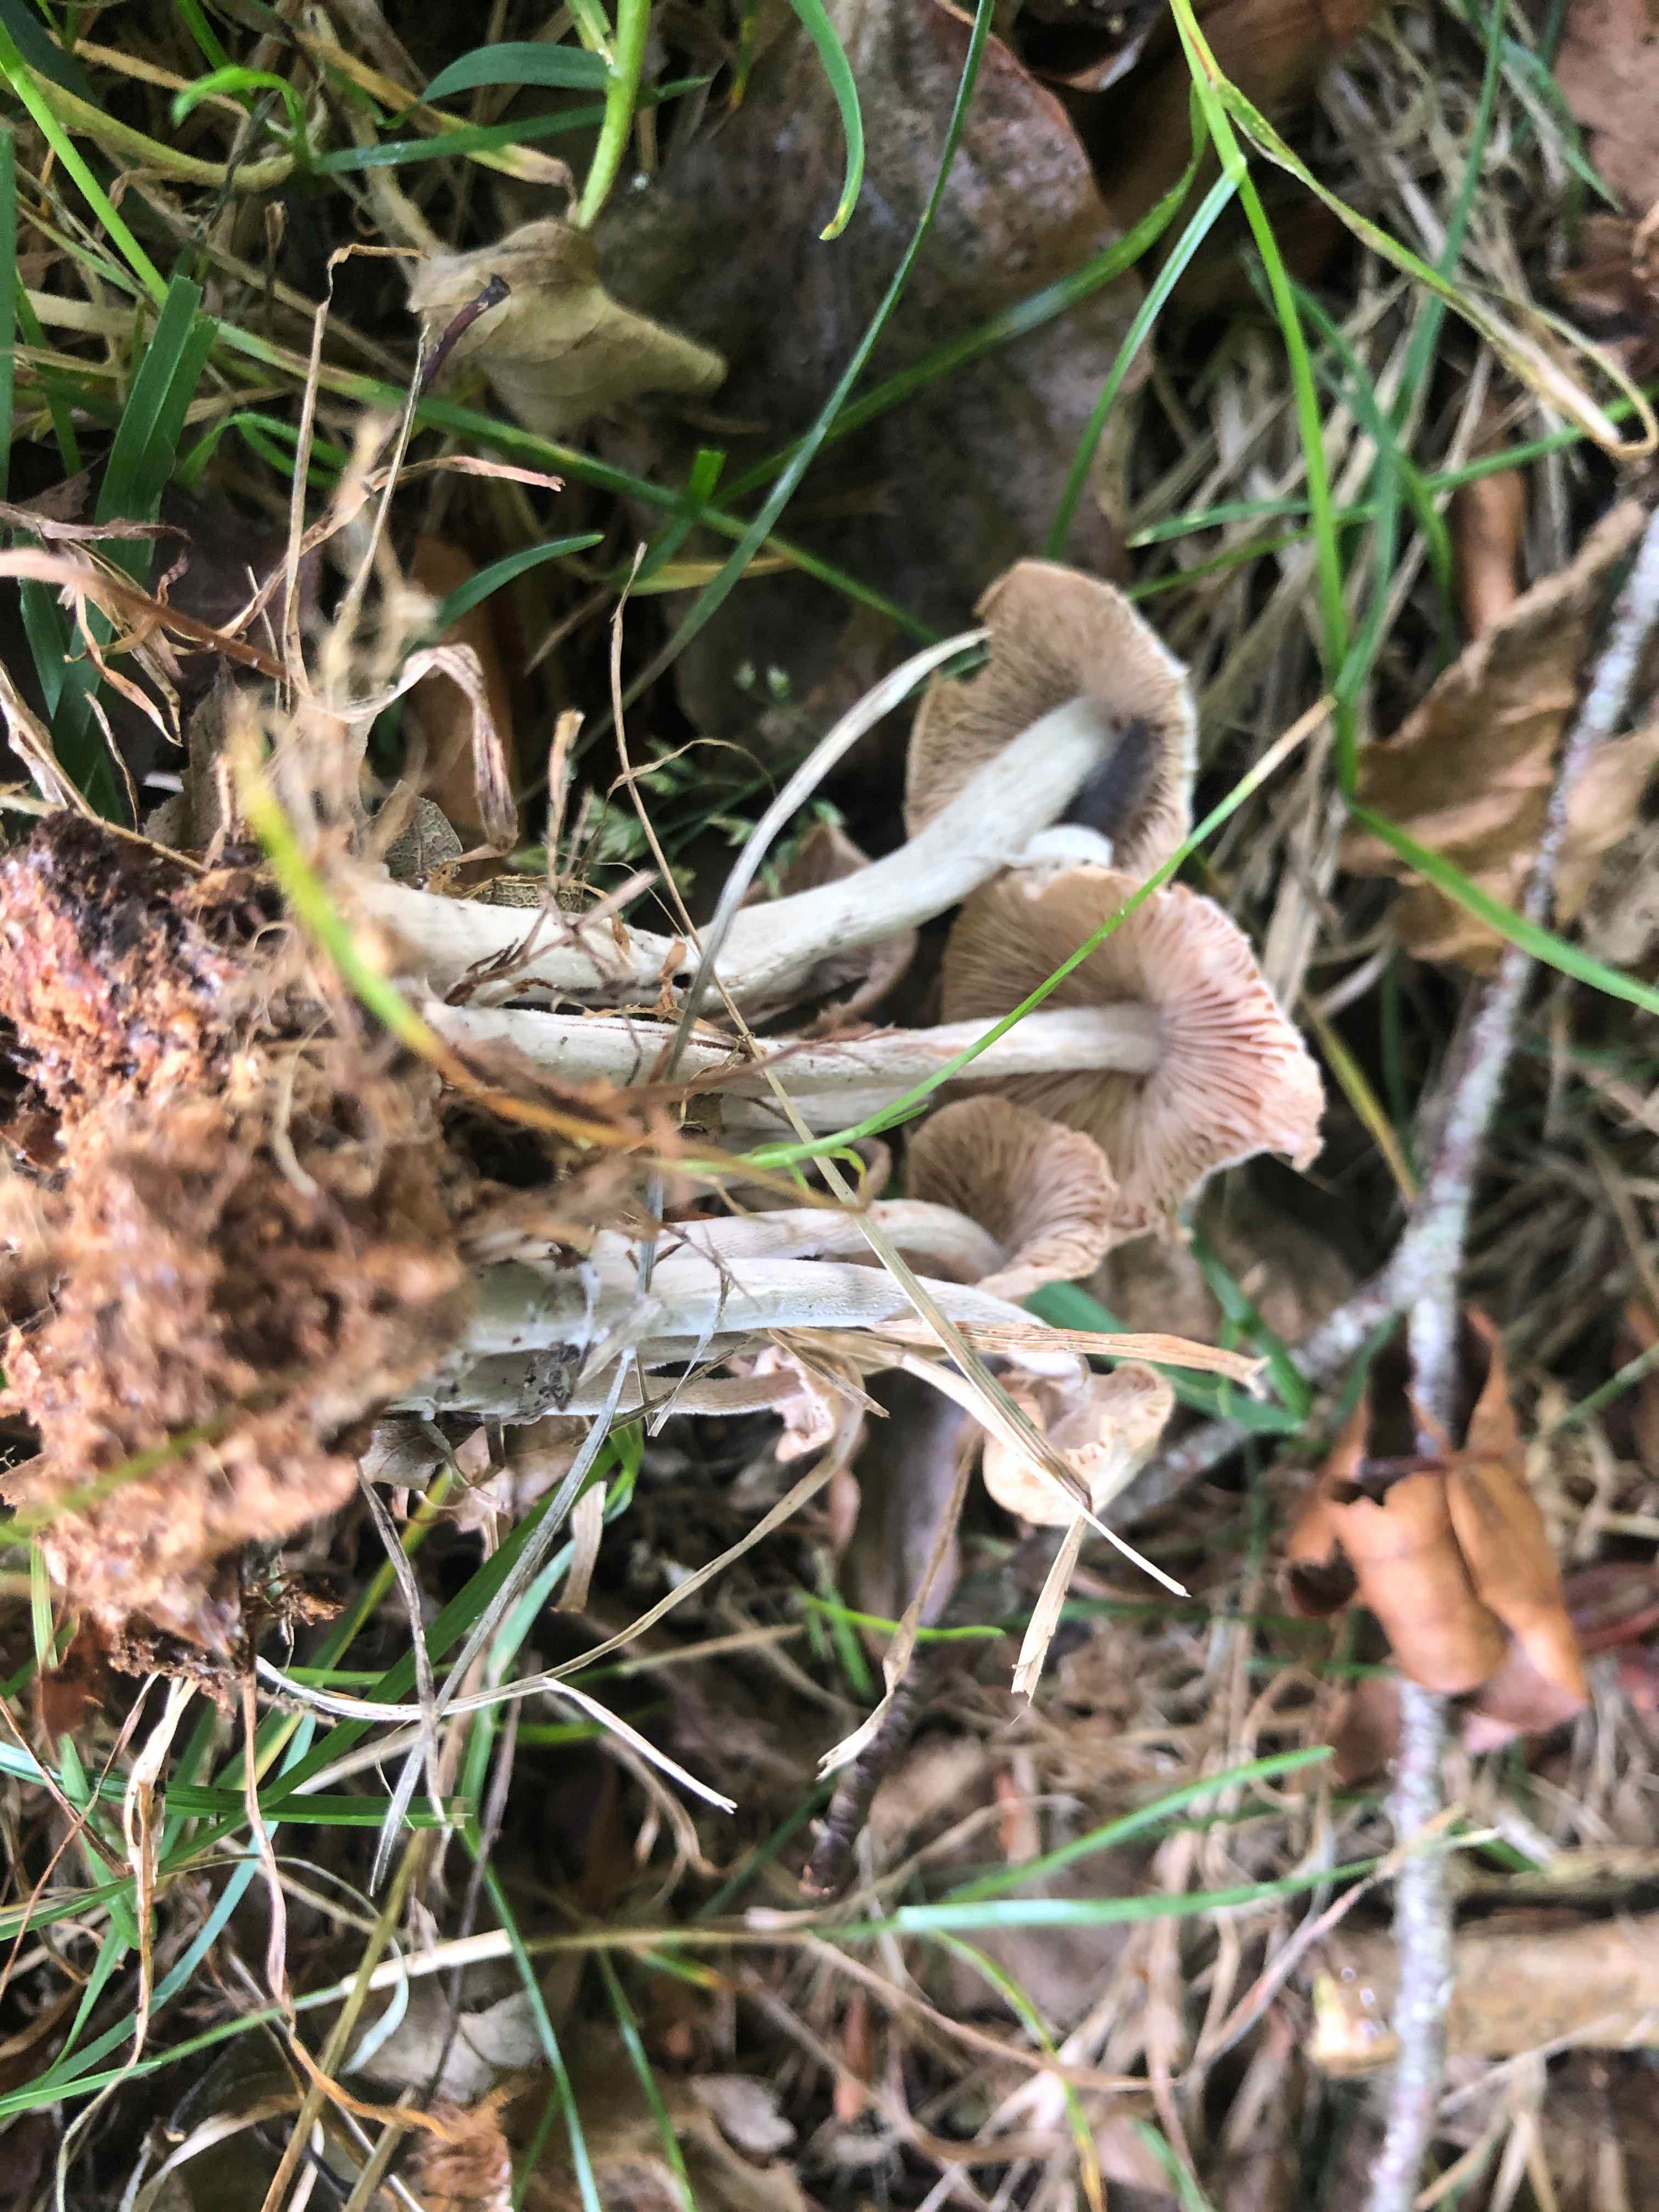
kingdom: Fungi
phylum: Basidiomycota
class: Agaricomycetes
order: Agaricales
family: Omphalotaceae
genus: Collybiopsis
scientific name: Collybiopsis confluens
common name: knippe-fladhat
